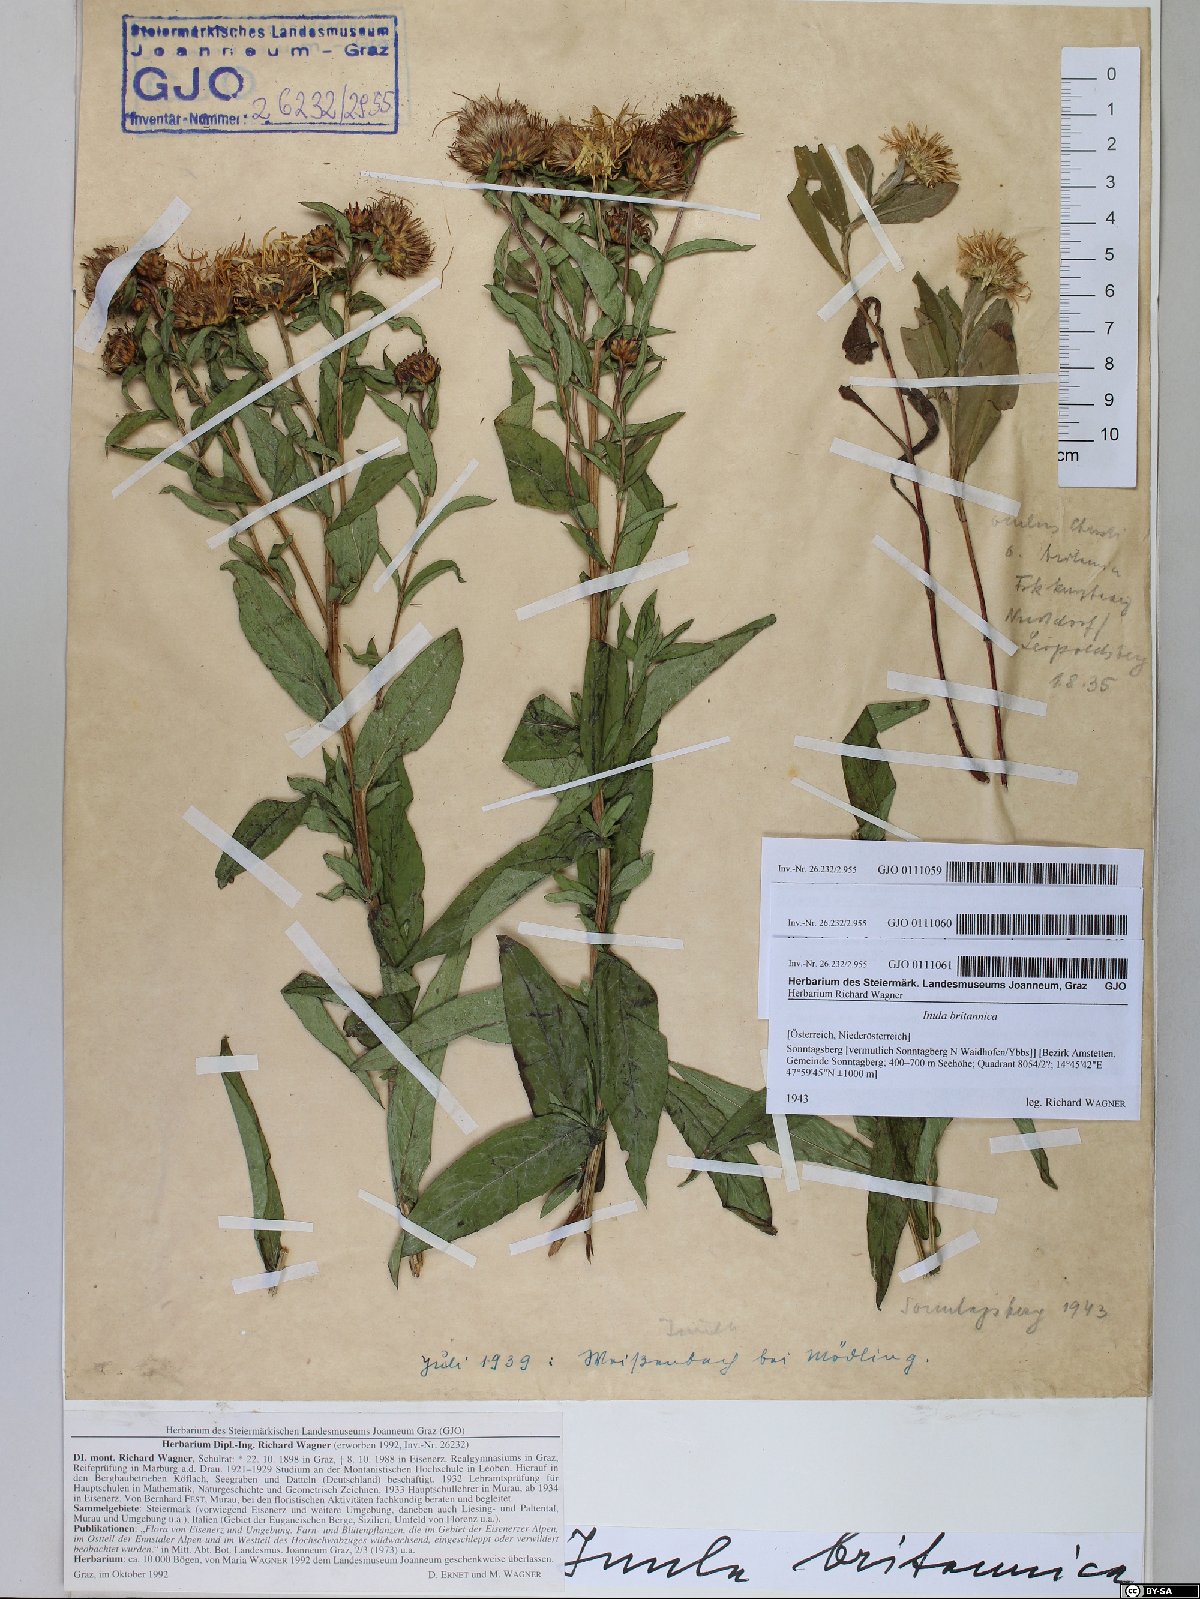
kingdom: Plantae
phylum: Tracheophyta
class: Magnoliopsida
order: Asterales
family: Asteraceae
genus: Pentanema
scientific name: Pentanema britannicum
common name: British elecampane
